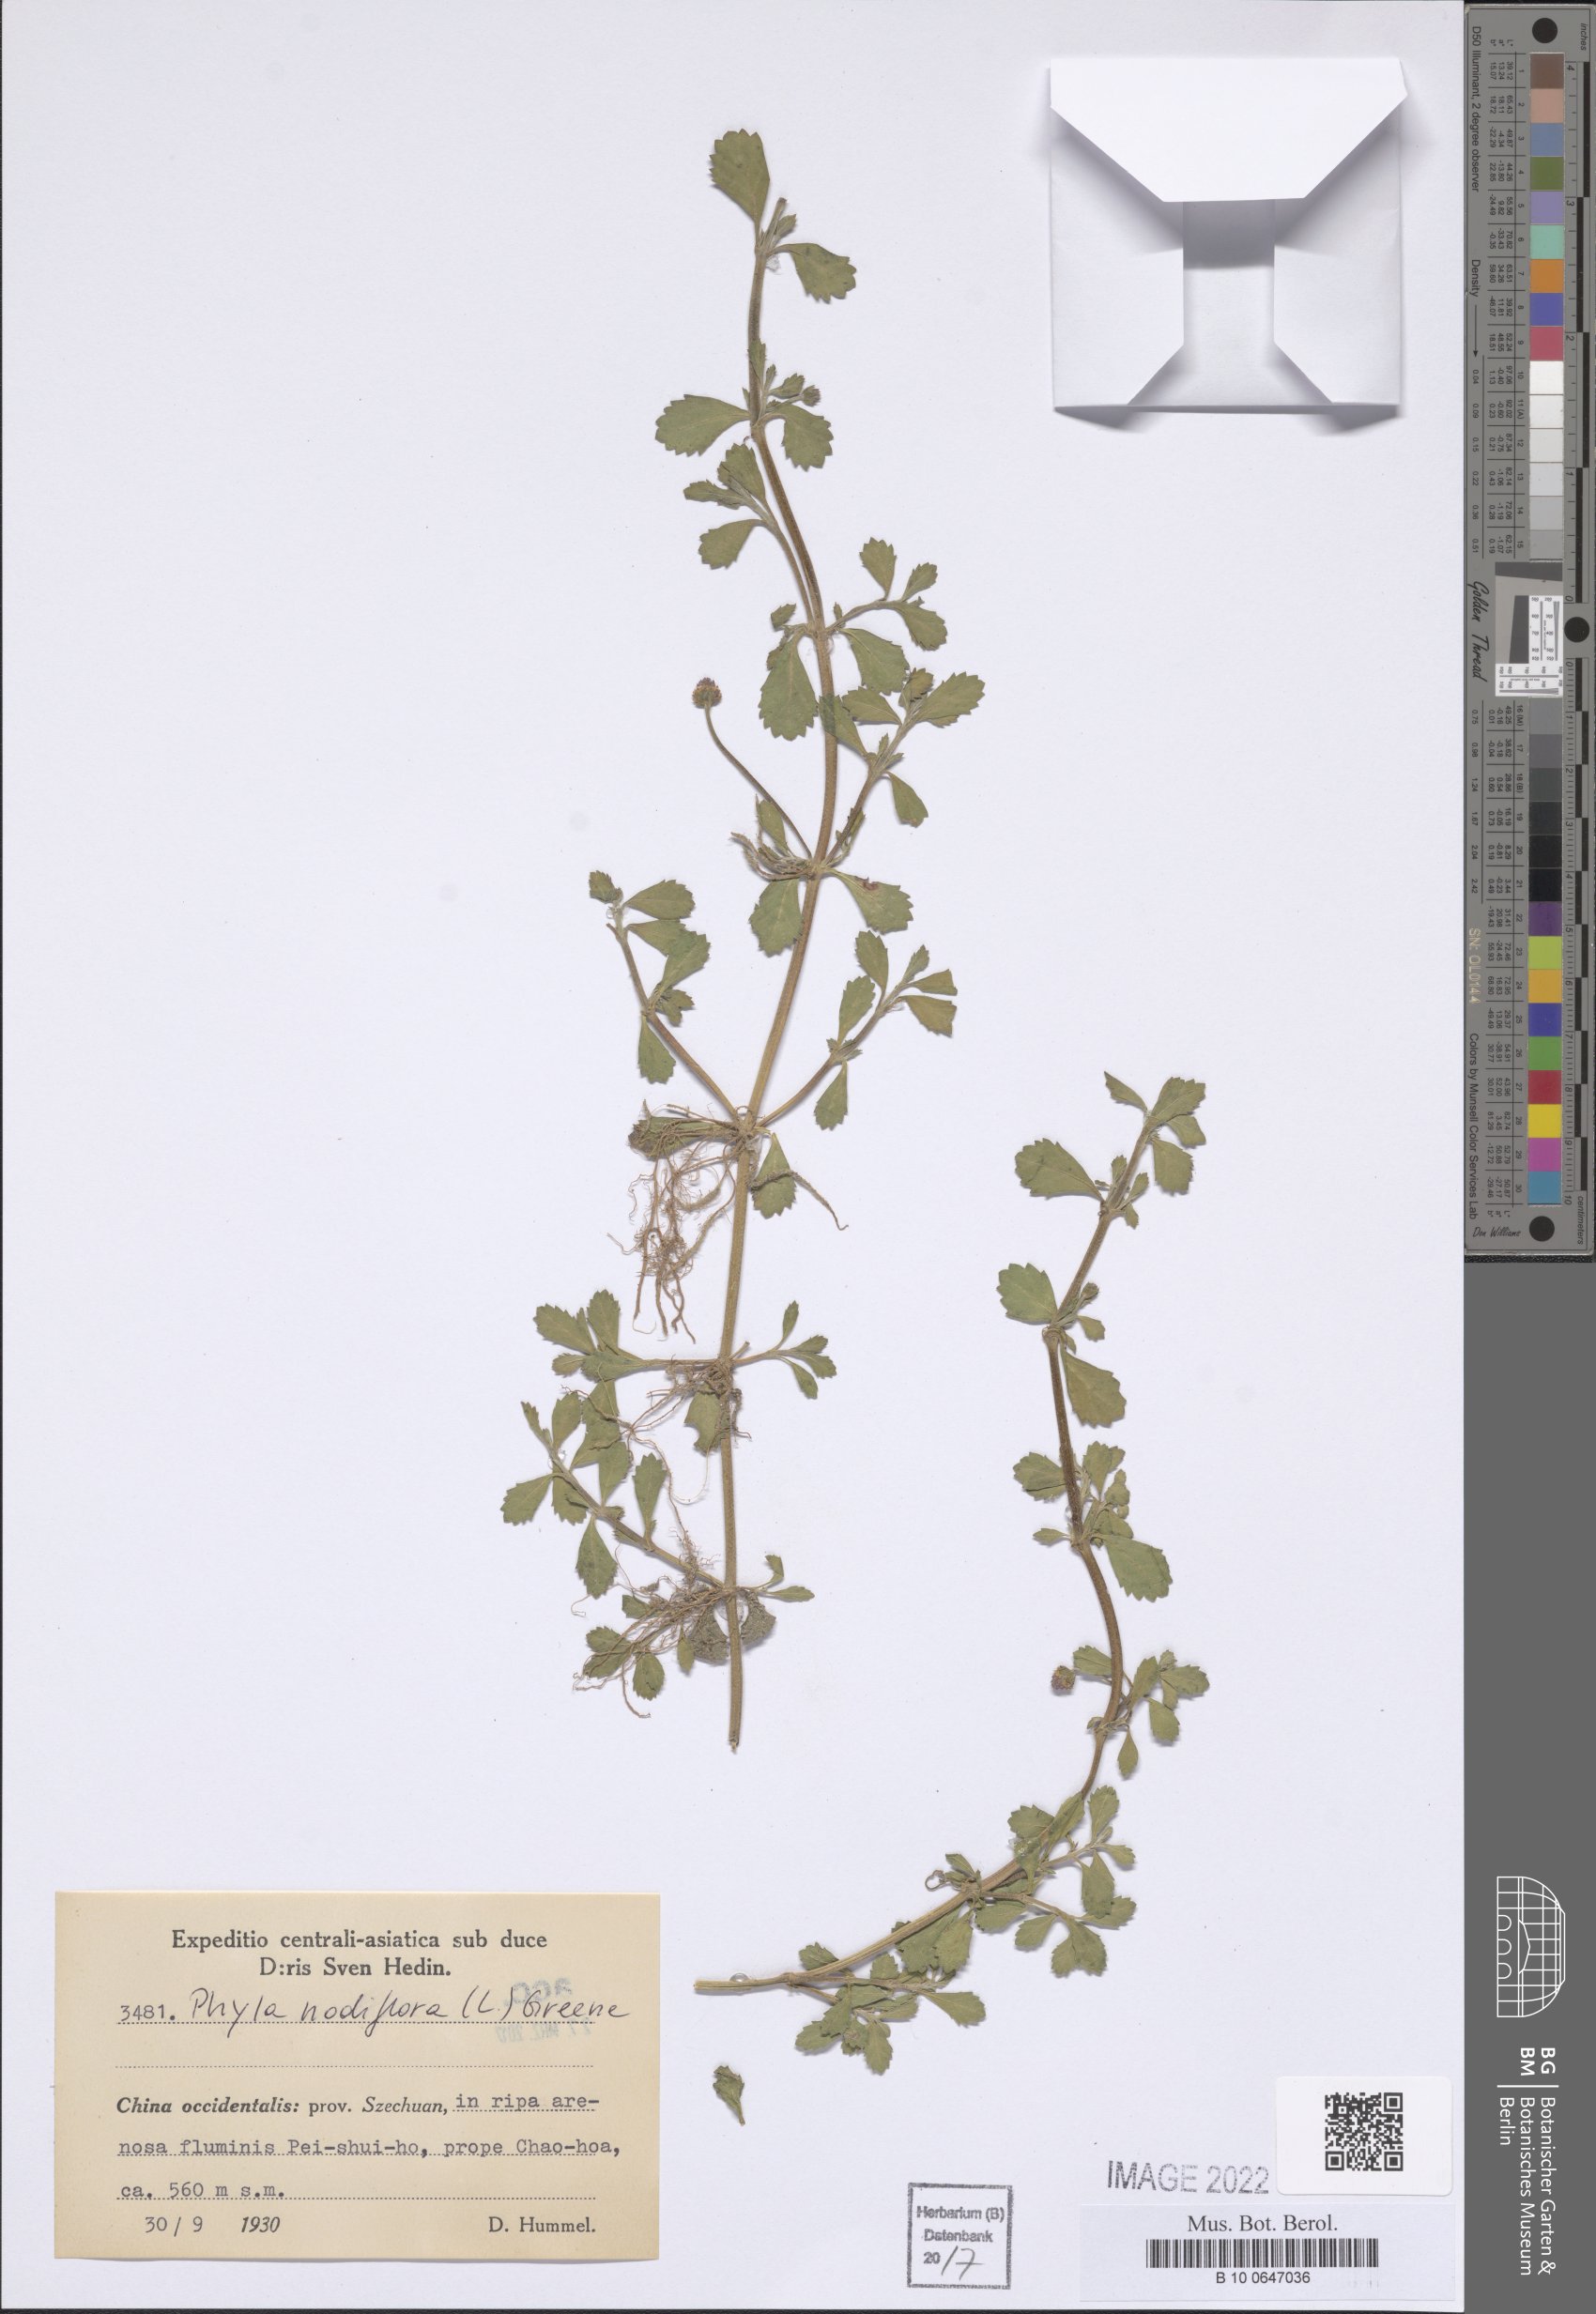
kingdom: Plantae
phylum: Tracheophyta
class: Magnoliopsida
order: Lamiales
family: Verbenaceae
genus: Phyla
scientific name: Phyla nodiflora
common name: Frogfruit
